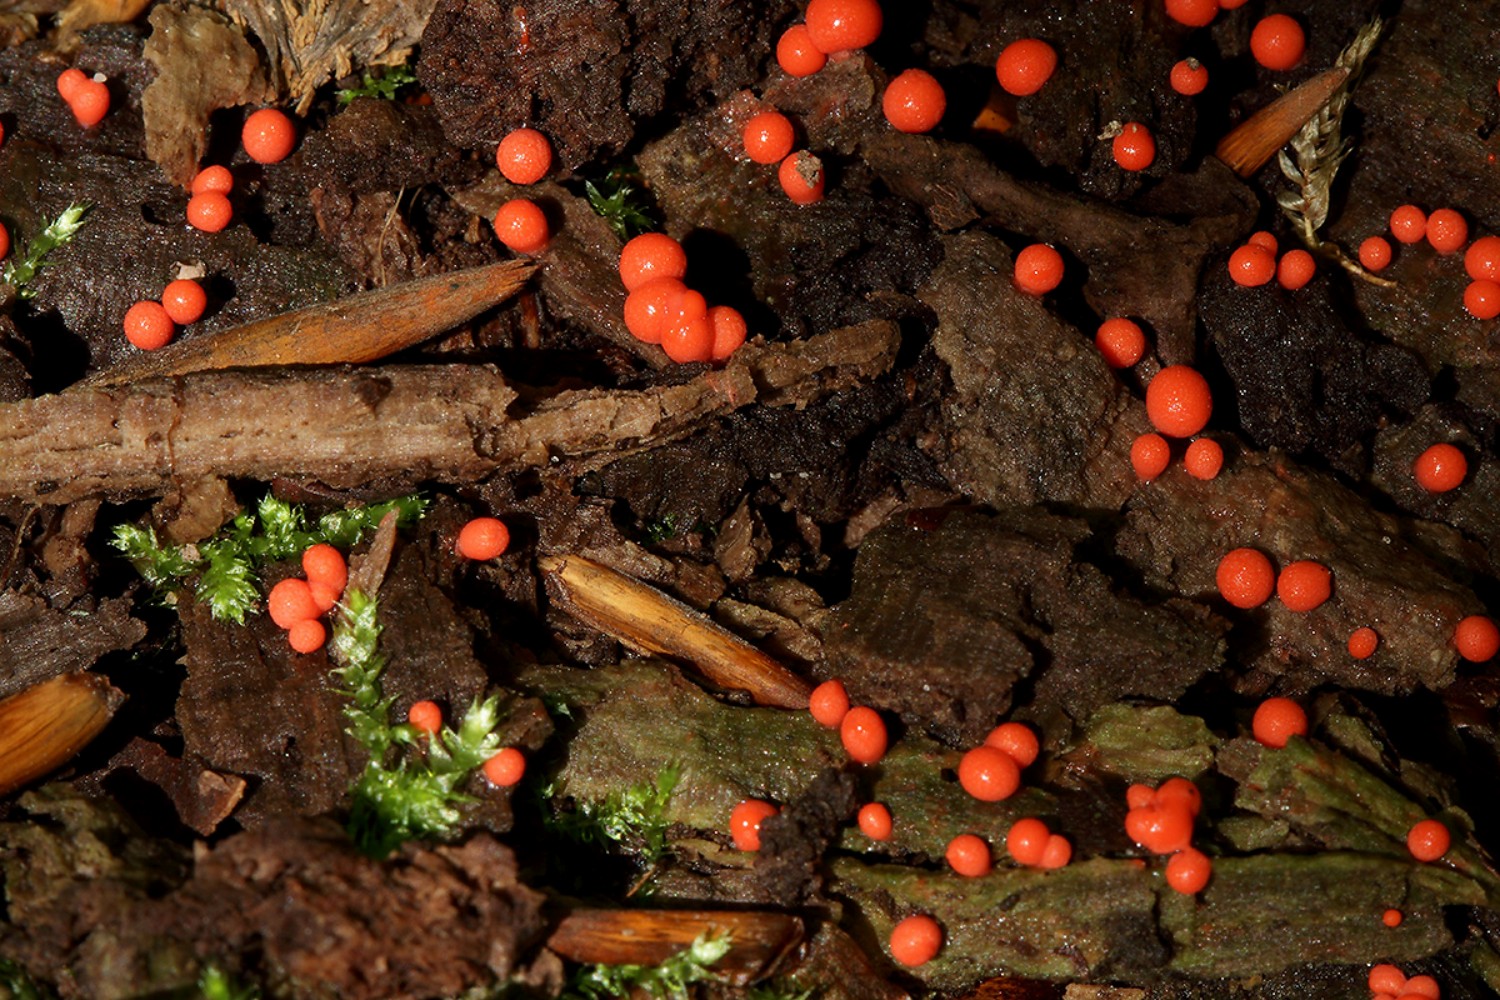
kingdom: Protozoa
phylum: Mycetozoa
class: Myxomycetes
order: Cribrariales
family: Tubiferaceae
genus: Lycogala
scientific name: Lycogala epidendrum
